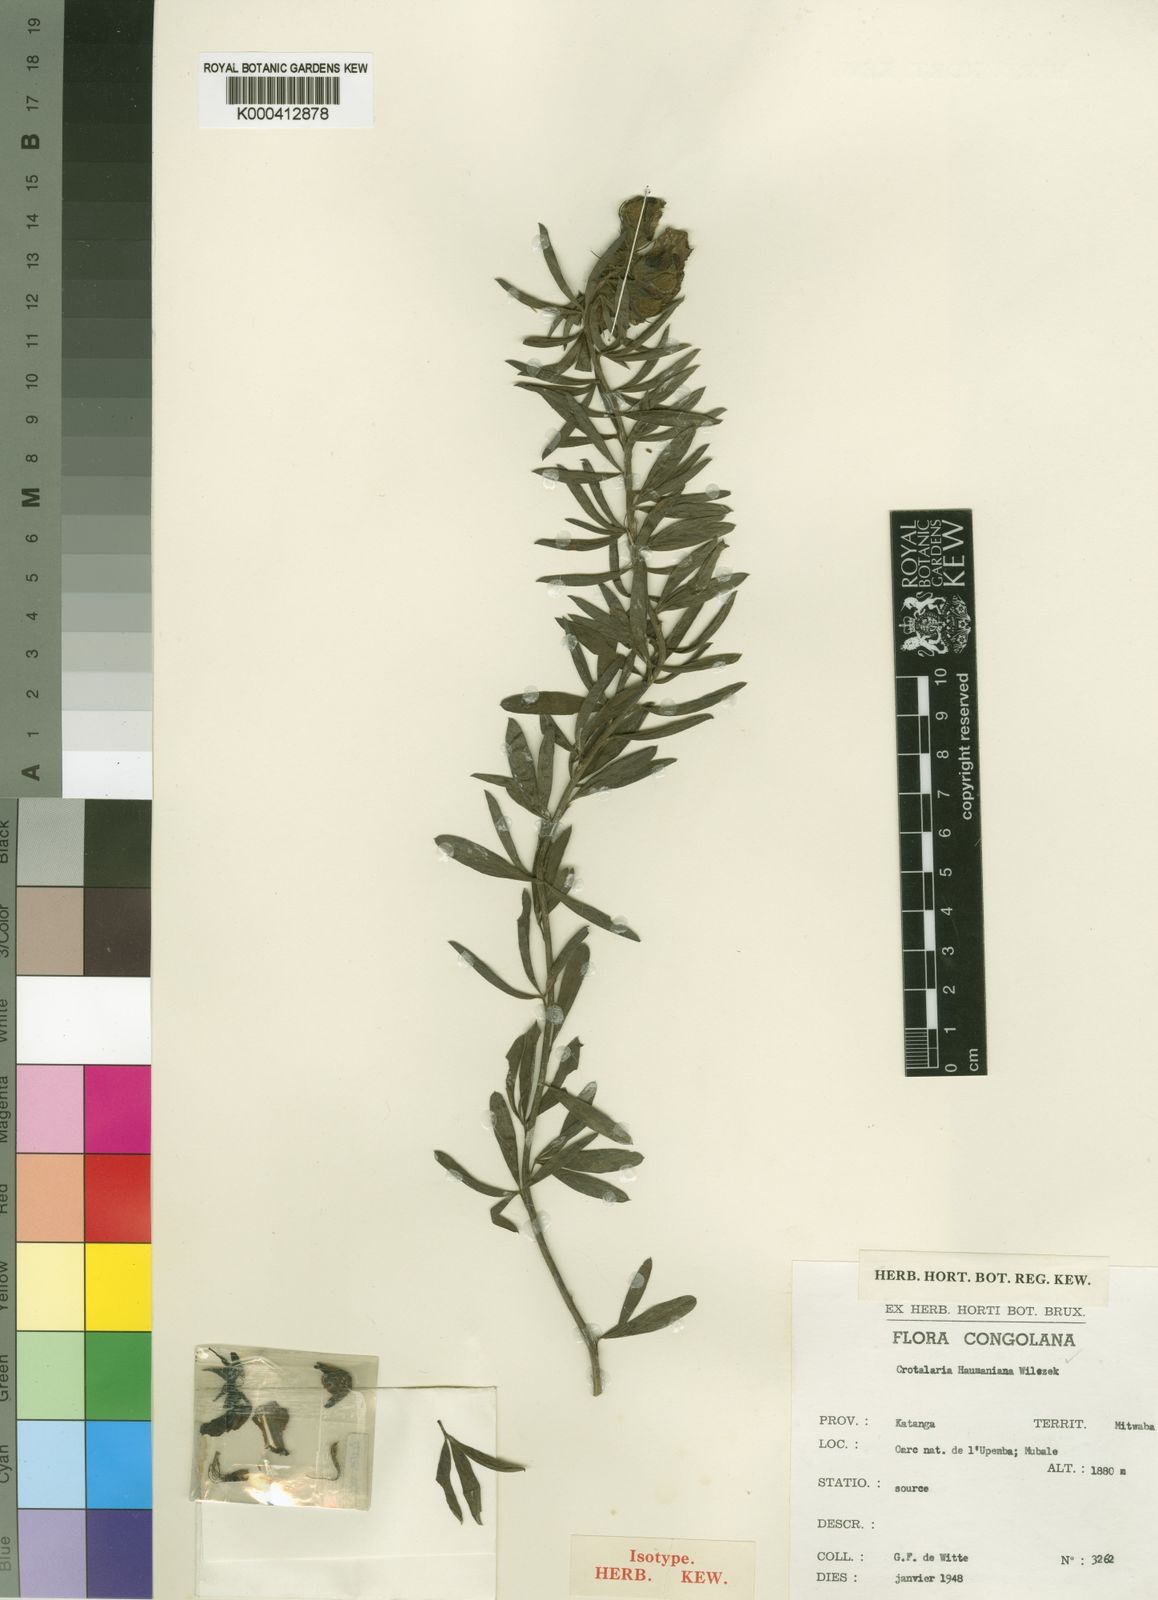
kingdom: Plantae
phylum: Tracheophyta
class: Magnoliopsida
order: Fabales
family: Fabaceae
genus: Crotalaria
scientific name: Crotalaria haumaniana
